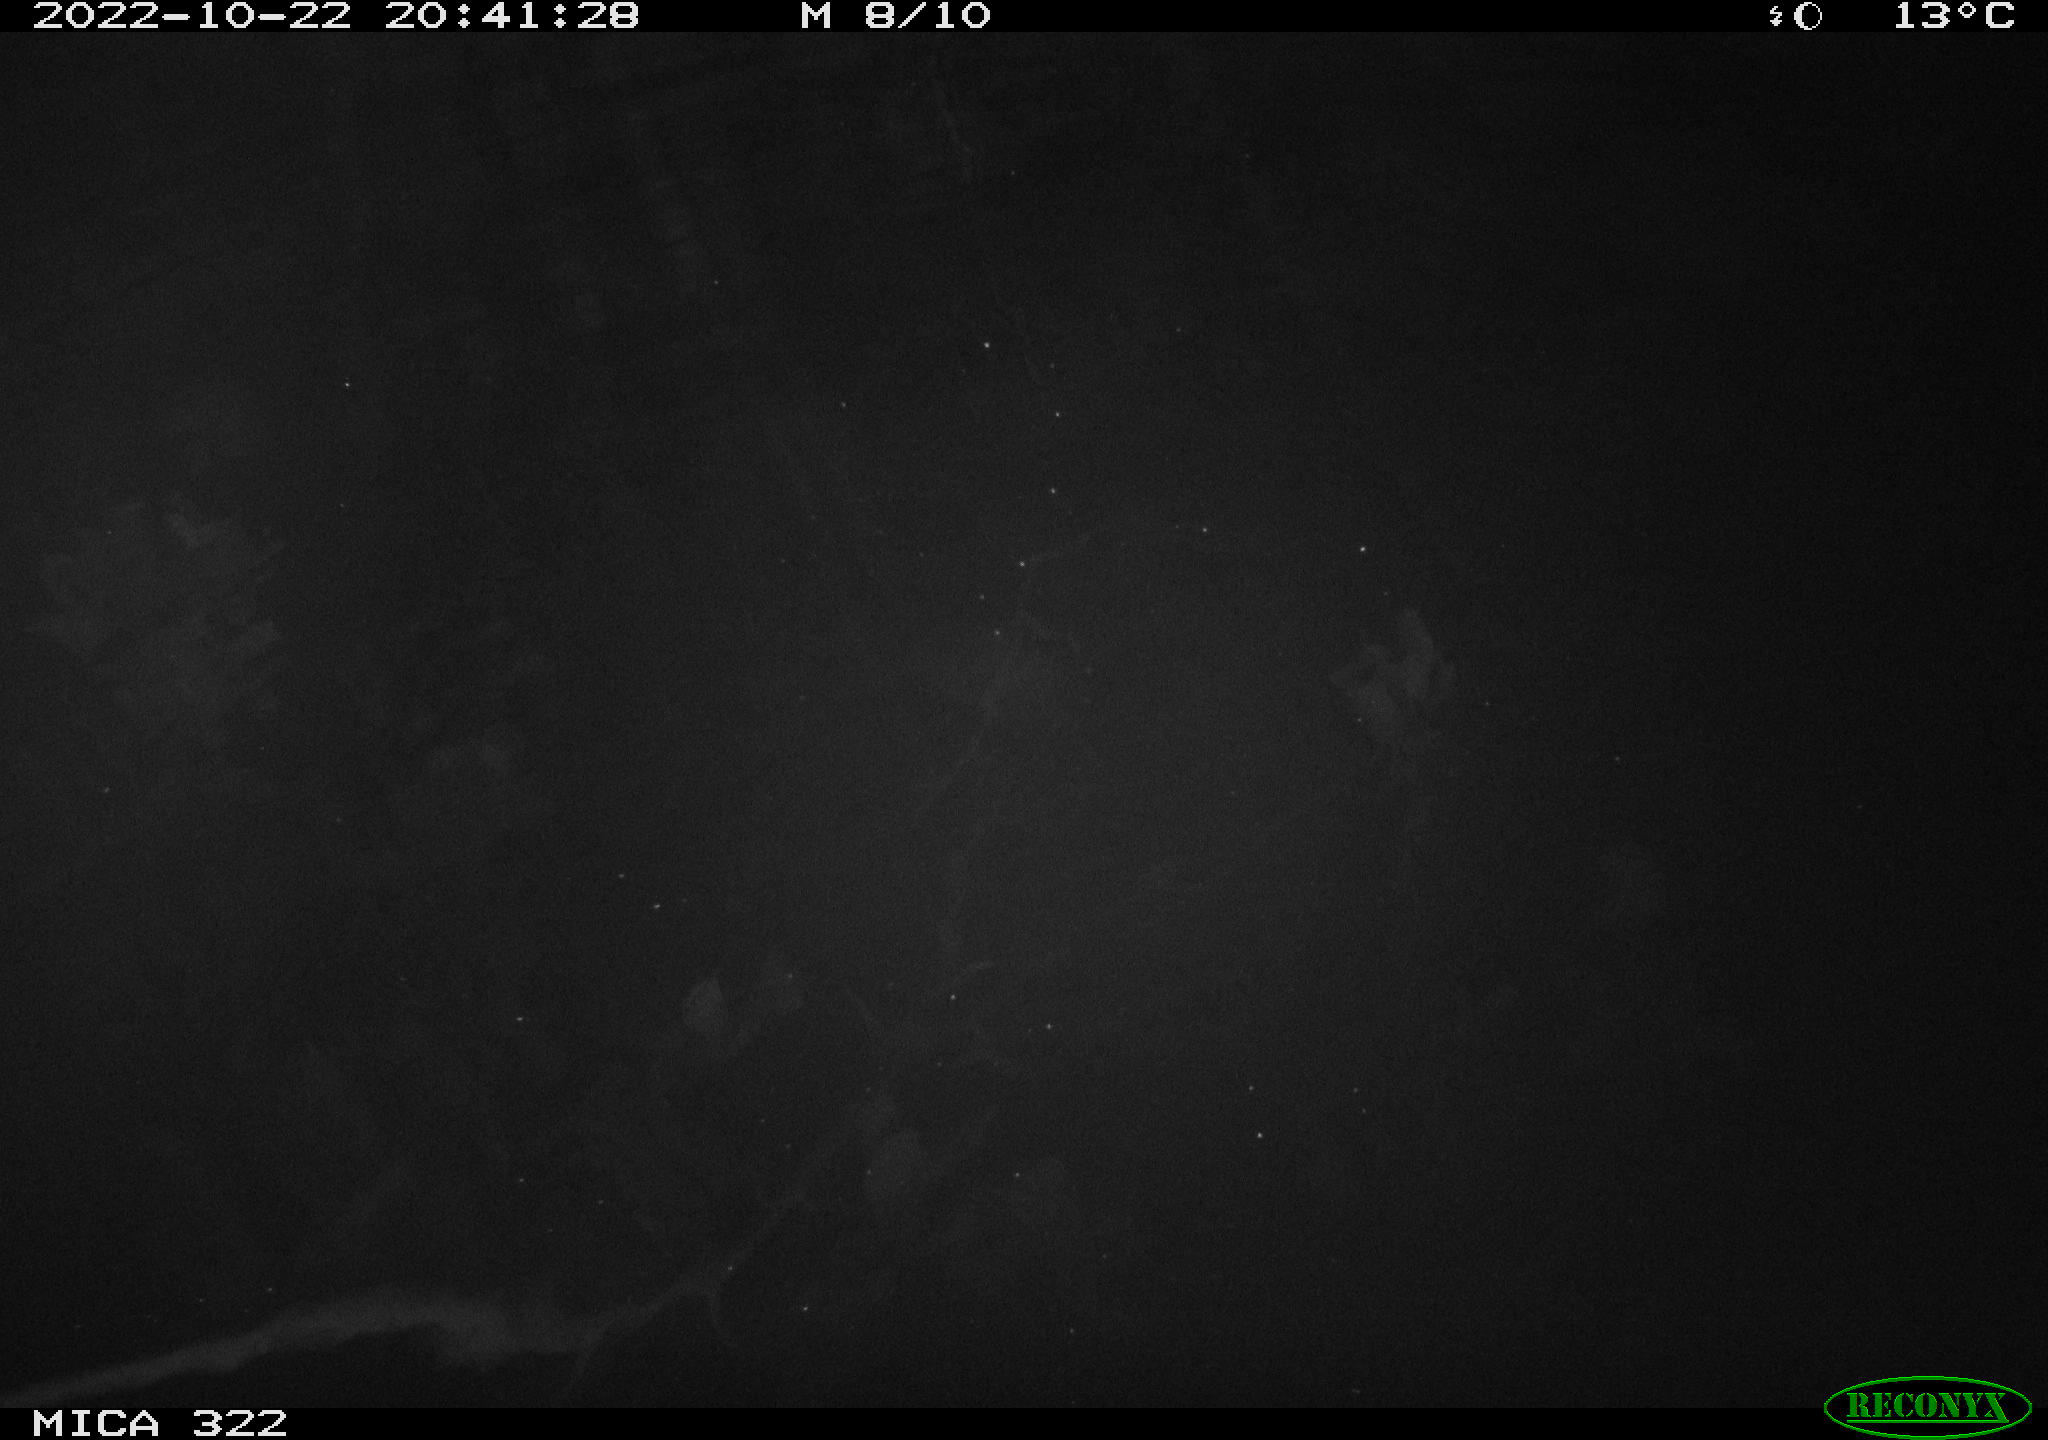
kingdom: Animalia
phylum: Chordata
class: Mammalia
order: Rodentia
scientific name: Rodentia
